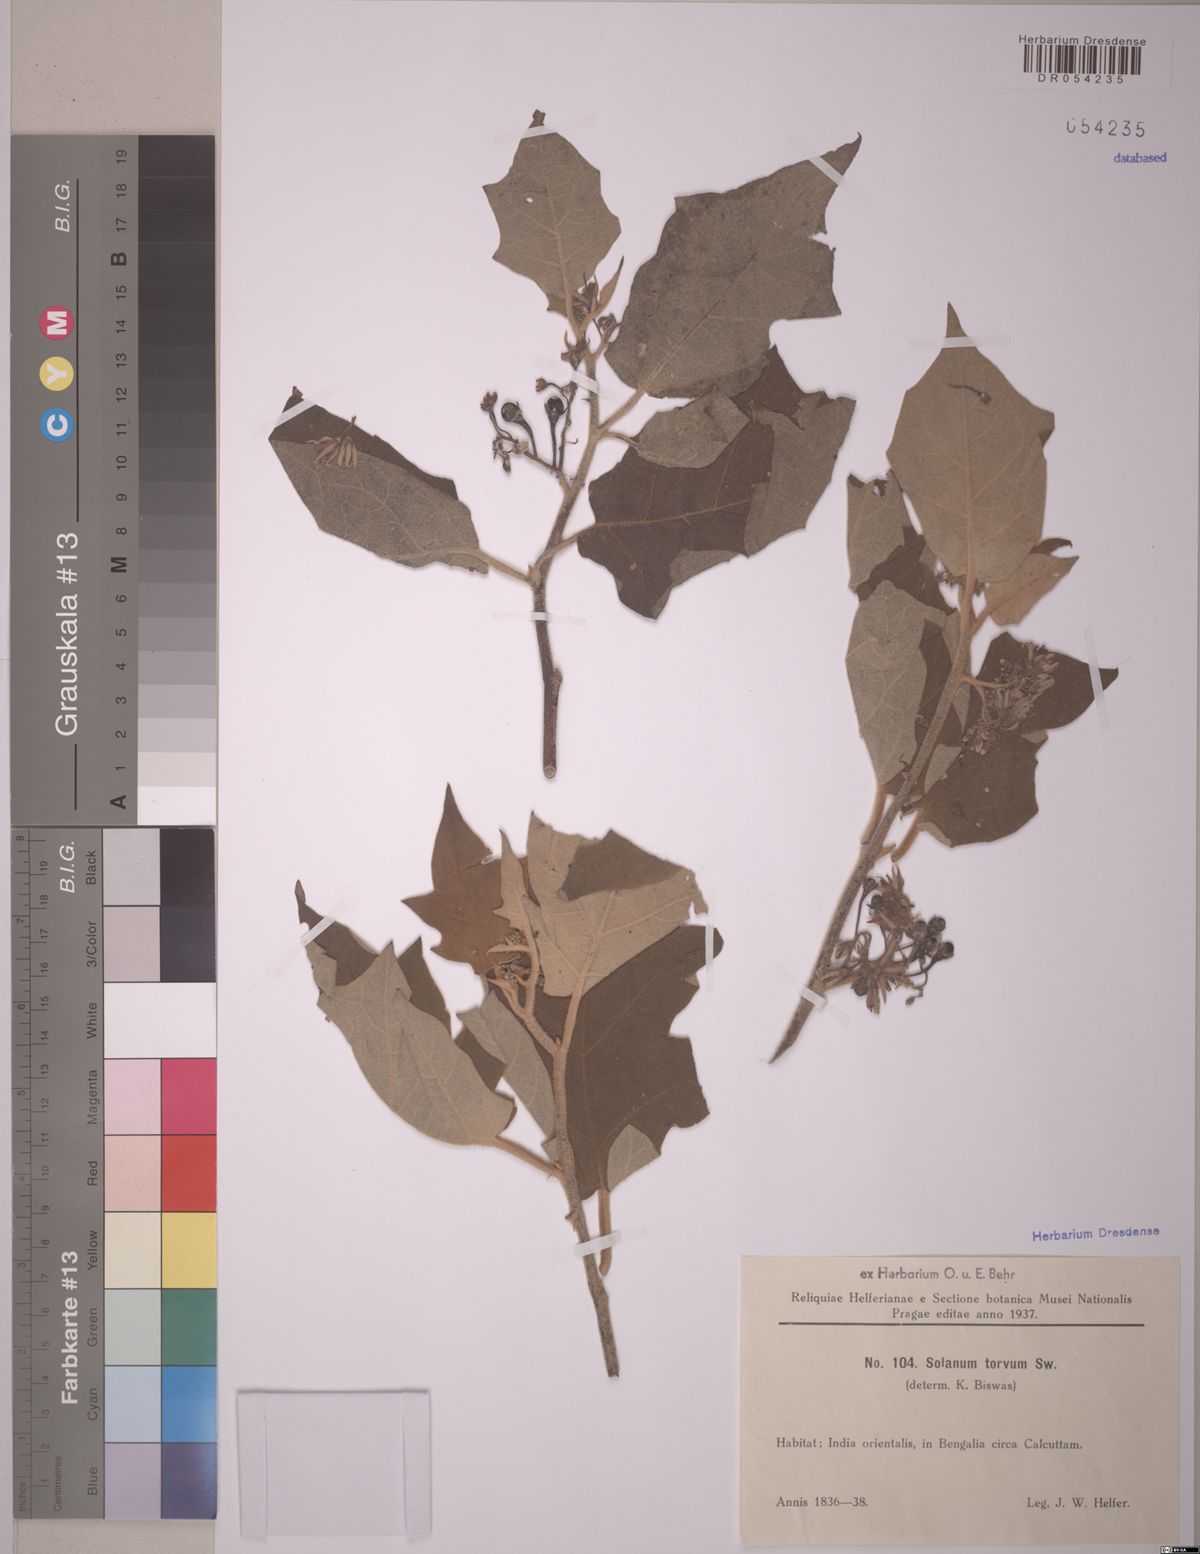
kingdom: Plantae
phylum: Tracheophyta
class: Magnoliopsida
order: Solanales
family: Solanaceae
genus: Solanum
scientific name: Solanum torvum
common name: Turkey berry
